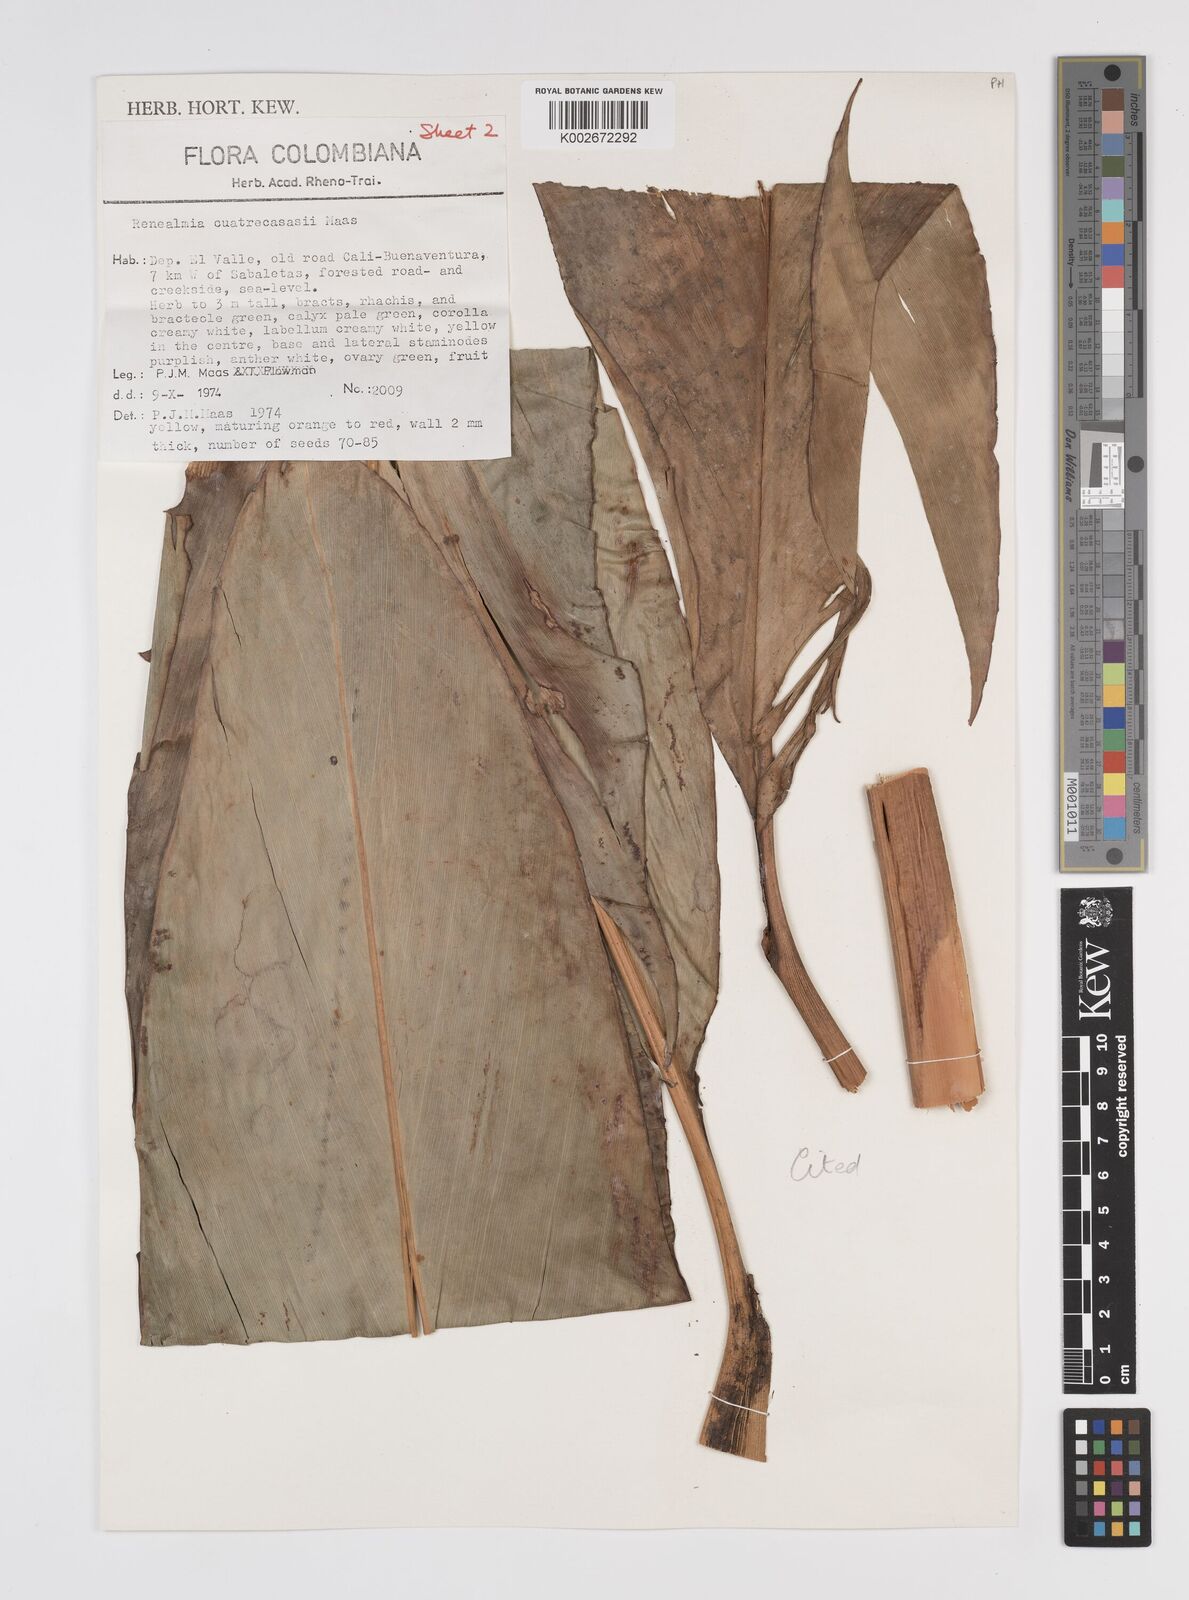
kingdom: Plantae
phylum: Tracheophyta
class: Liliopsida
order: Zingiberales
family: Zingiberaceae
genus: Renealmia
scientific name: Renealmia cuatrecasasii
